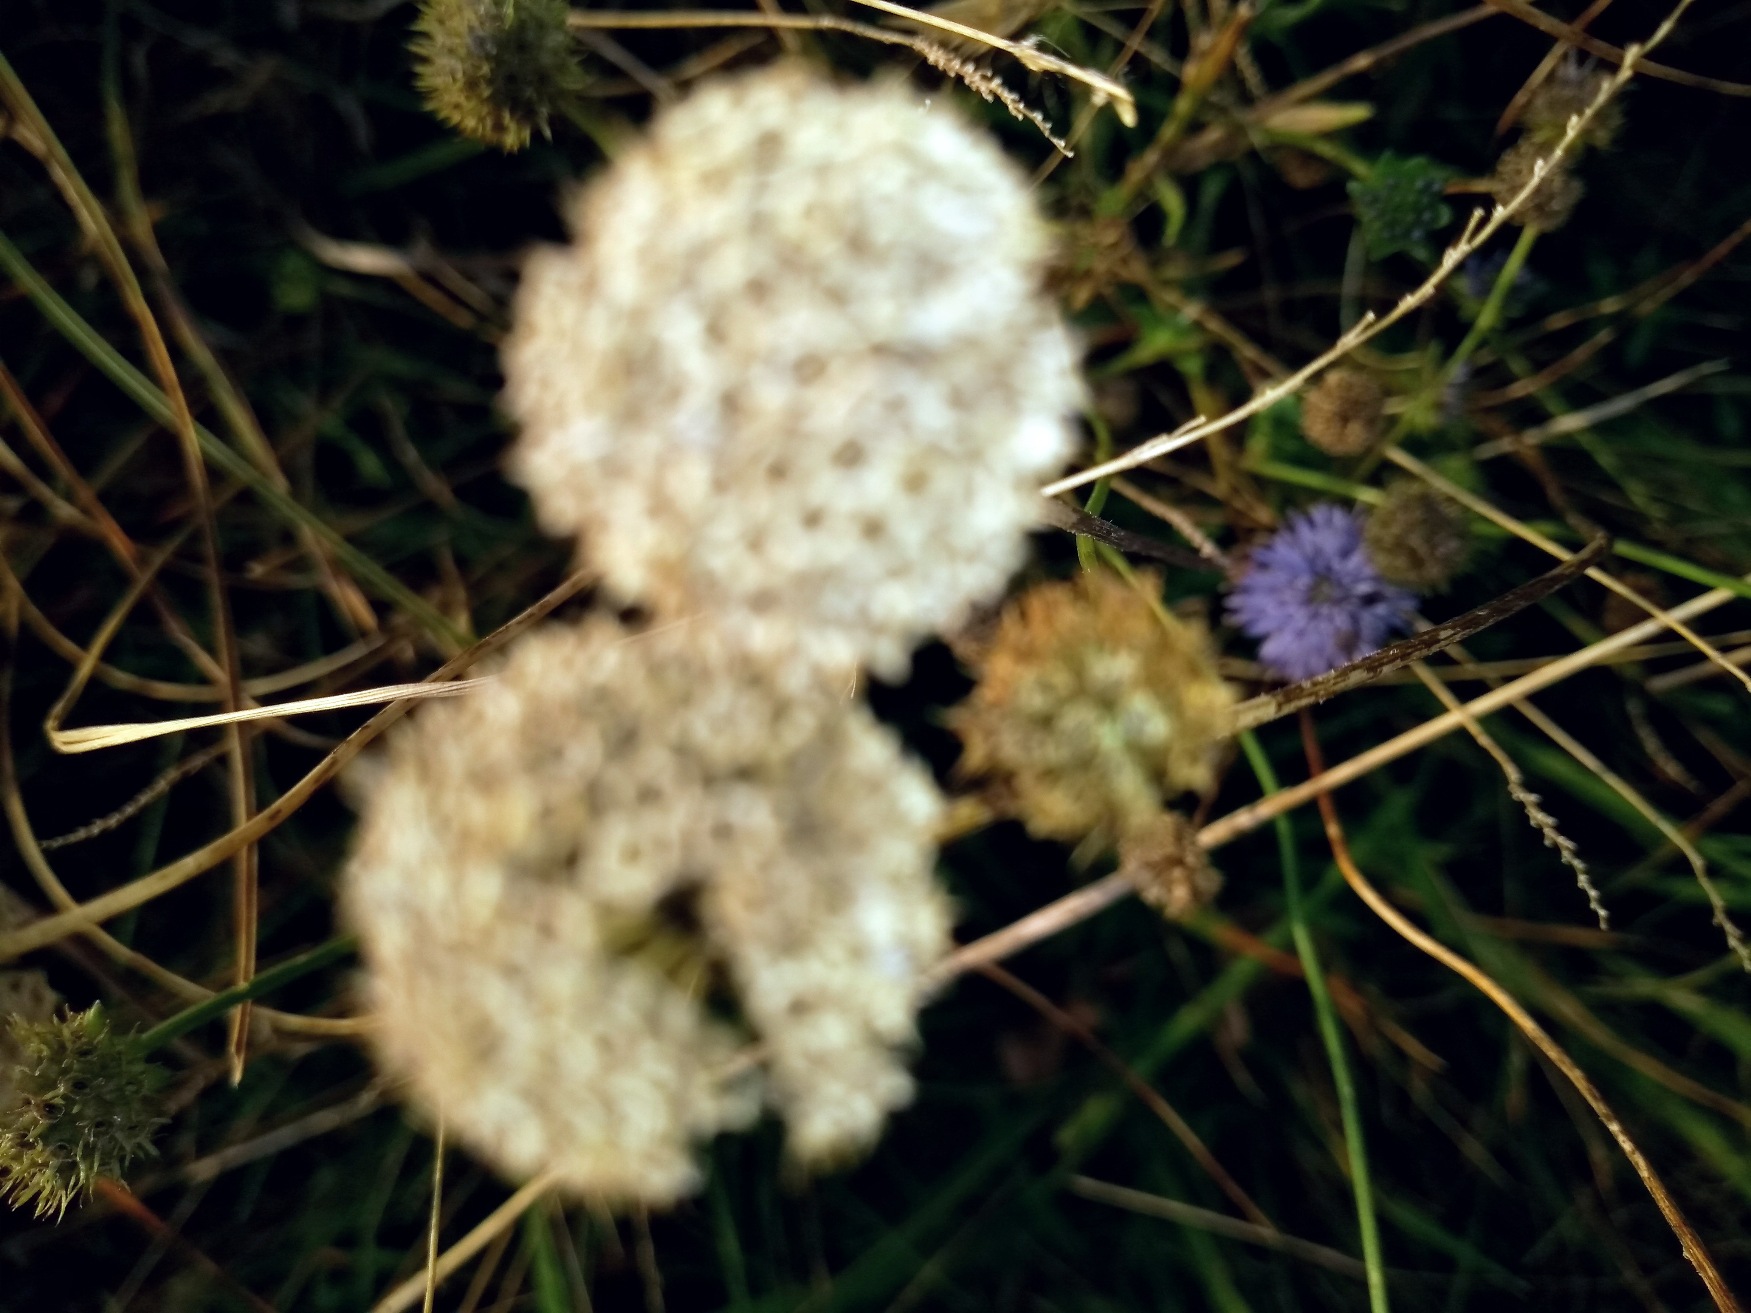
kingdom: Plantae
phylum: Tracheophyta
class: Magnoliopsida
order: Asterales
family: Campanulaceae
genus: Jasione
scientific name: Jasione montana
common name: Blåmunke
